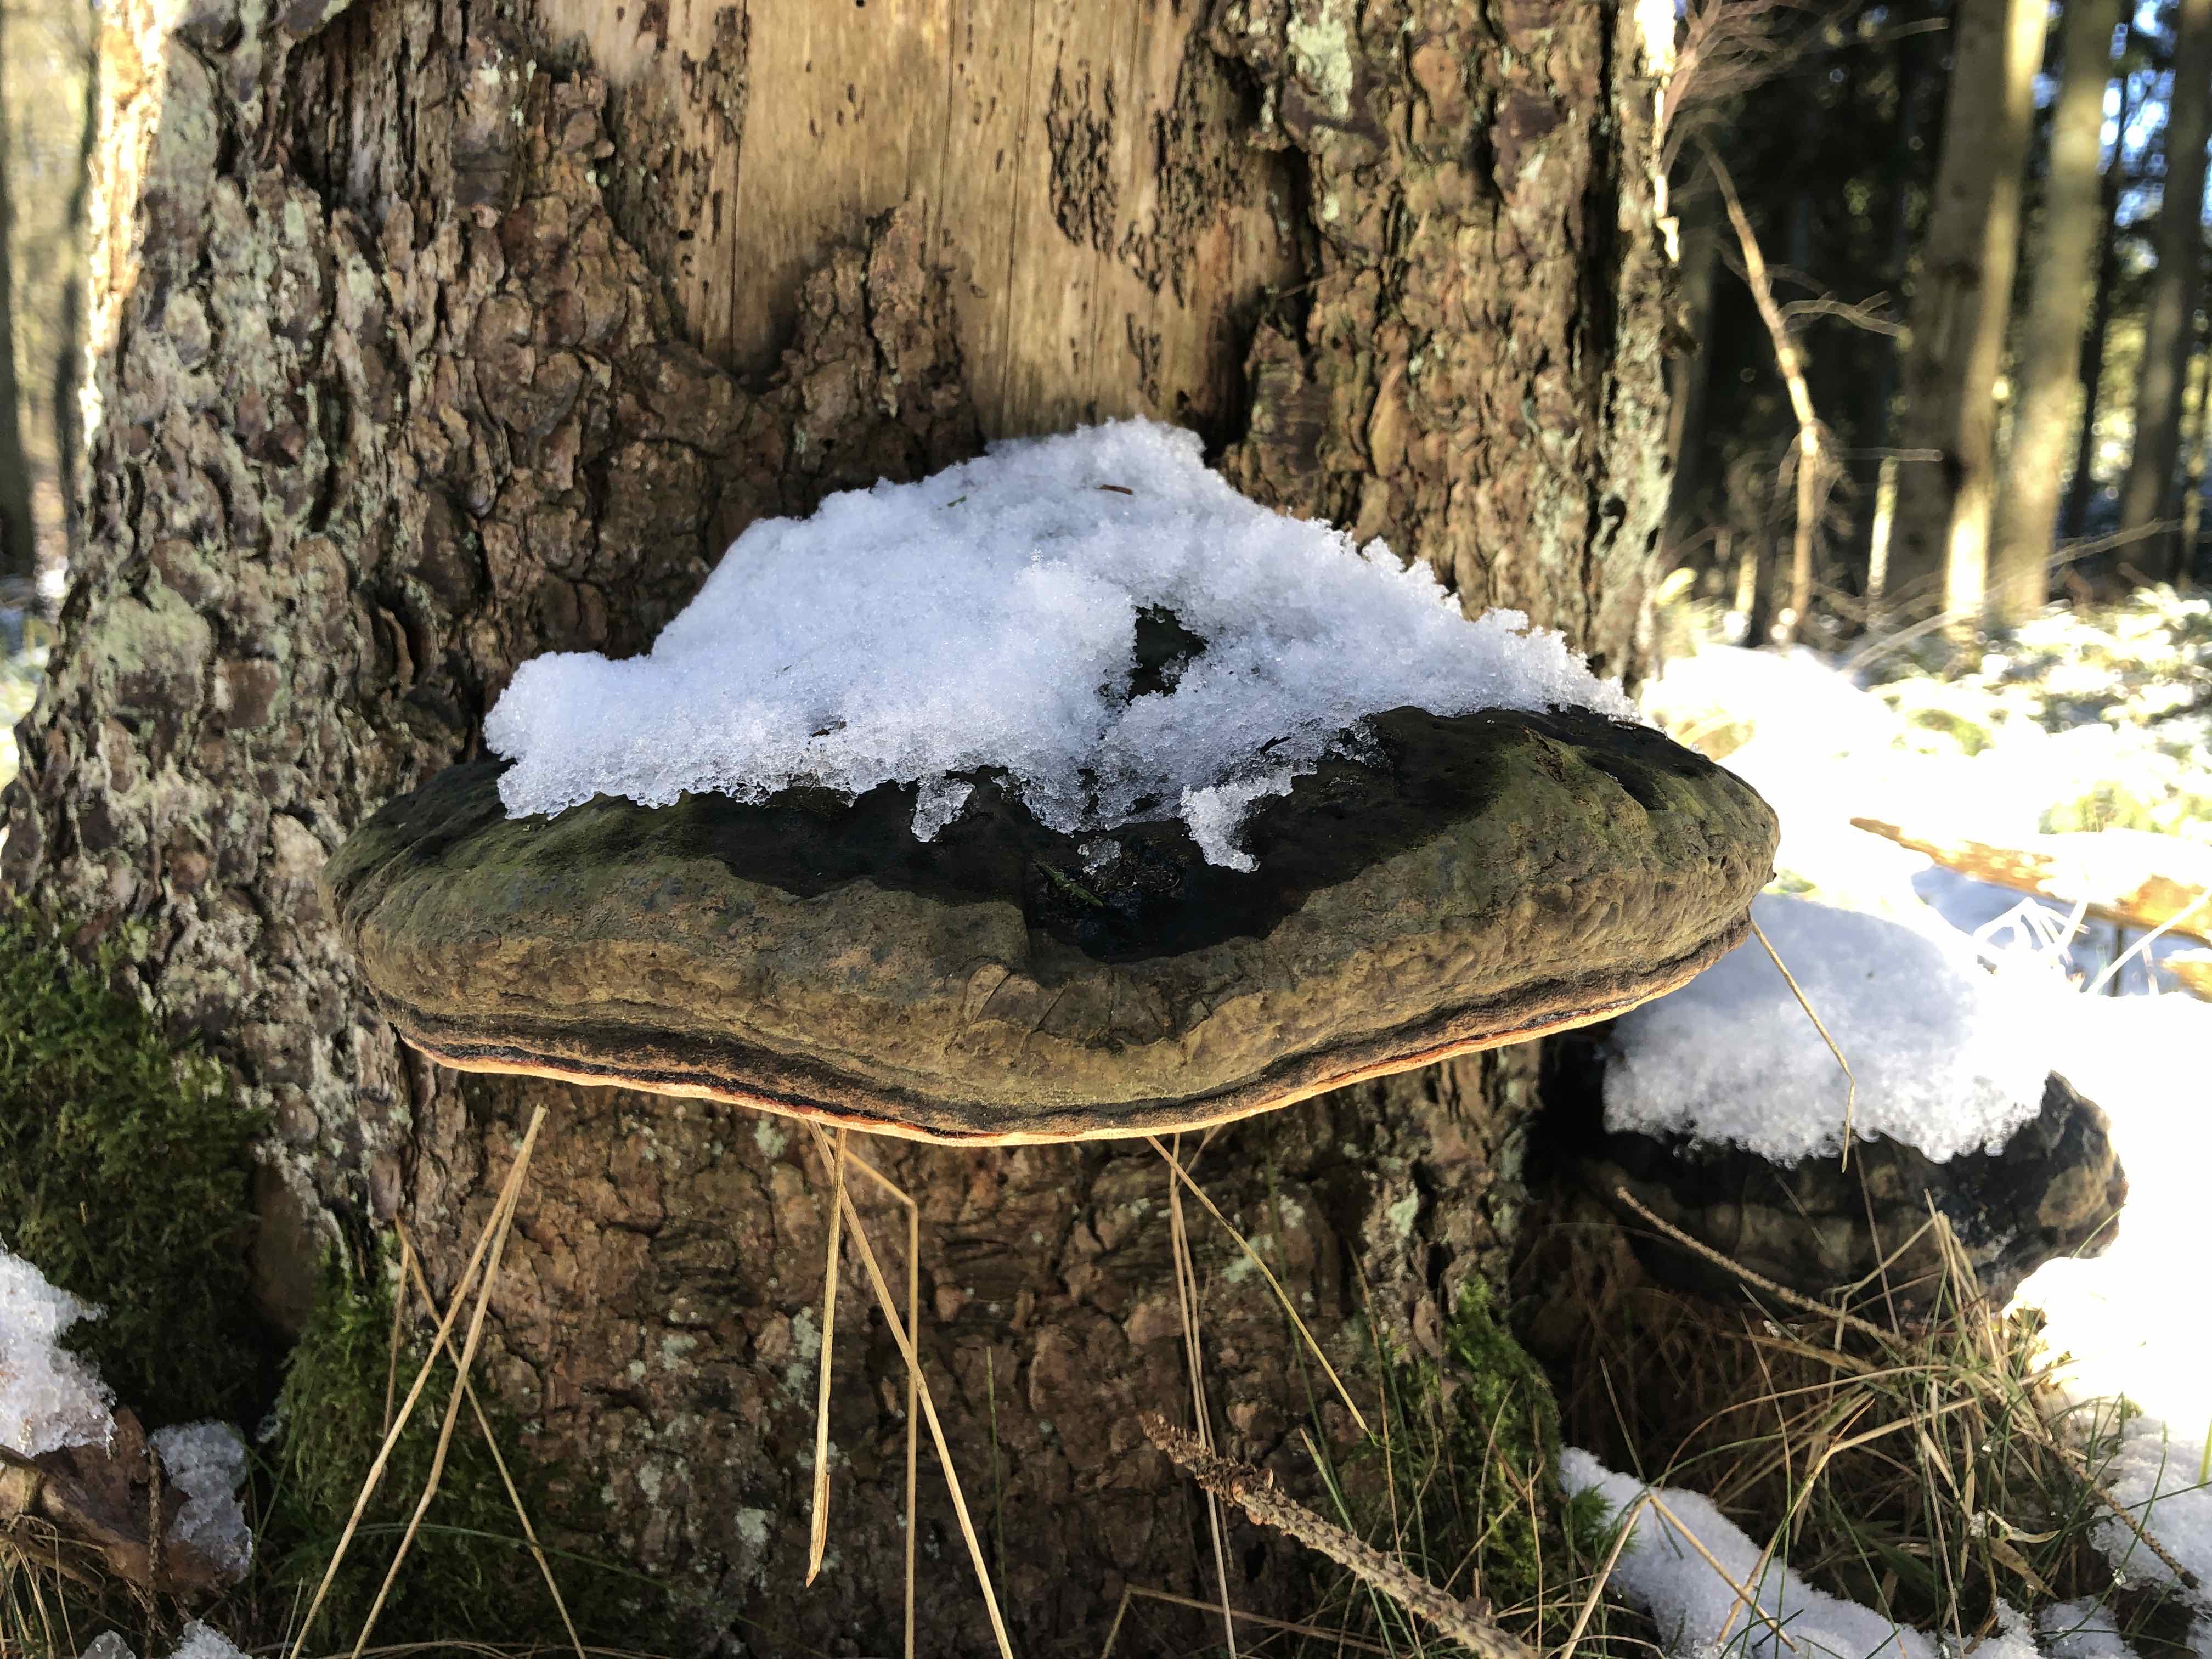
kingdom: Fungi
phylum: Basidiomycota
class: Agaricomycetes
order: Polyporales
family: Fomitopsidaceae
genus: Fomitopsis
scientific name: Fomitopsis pinicola
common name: randbæltet hovporesvamp
